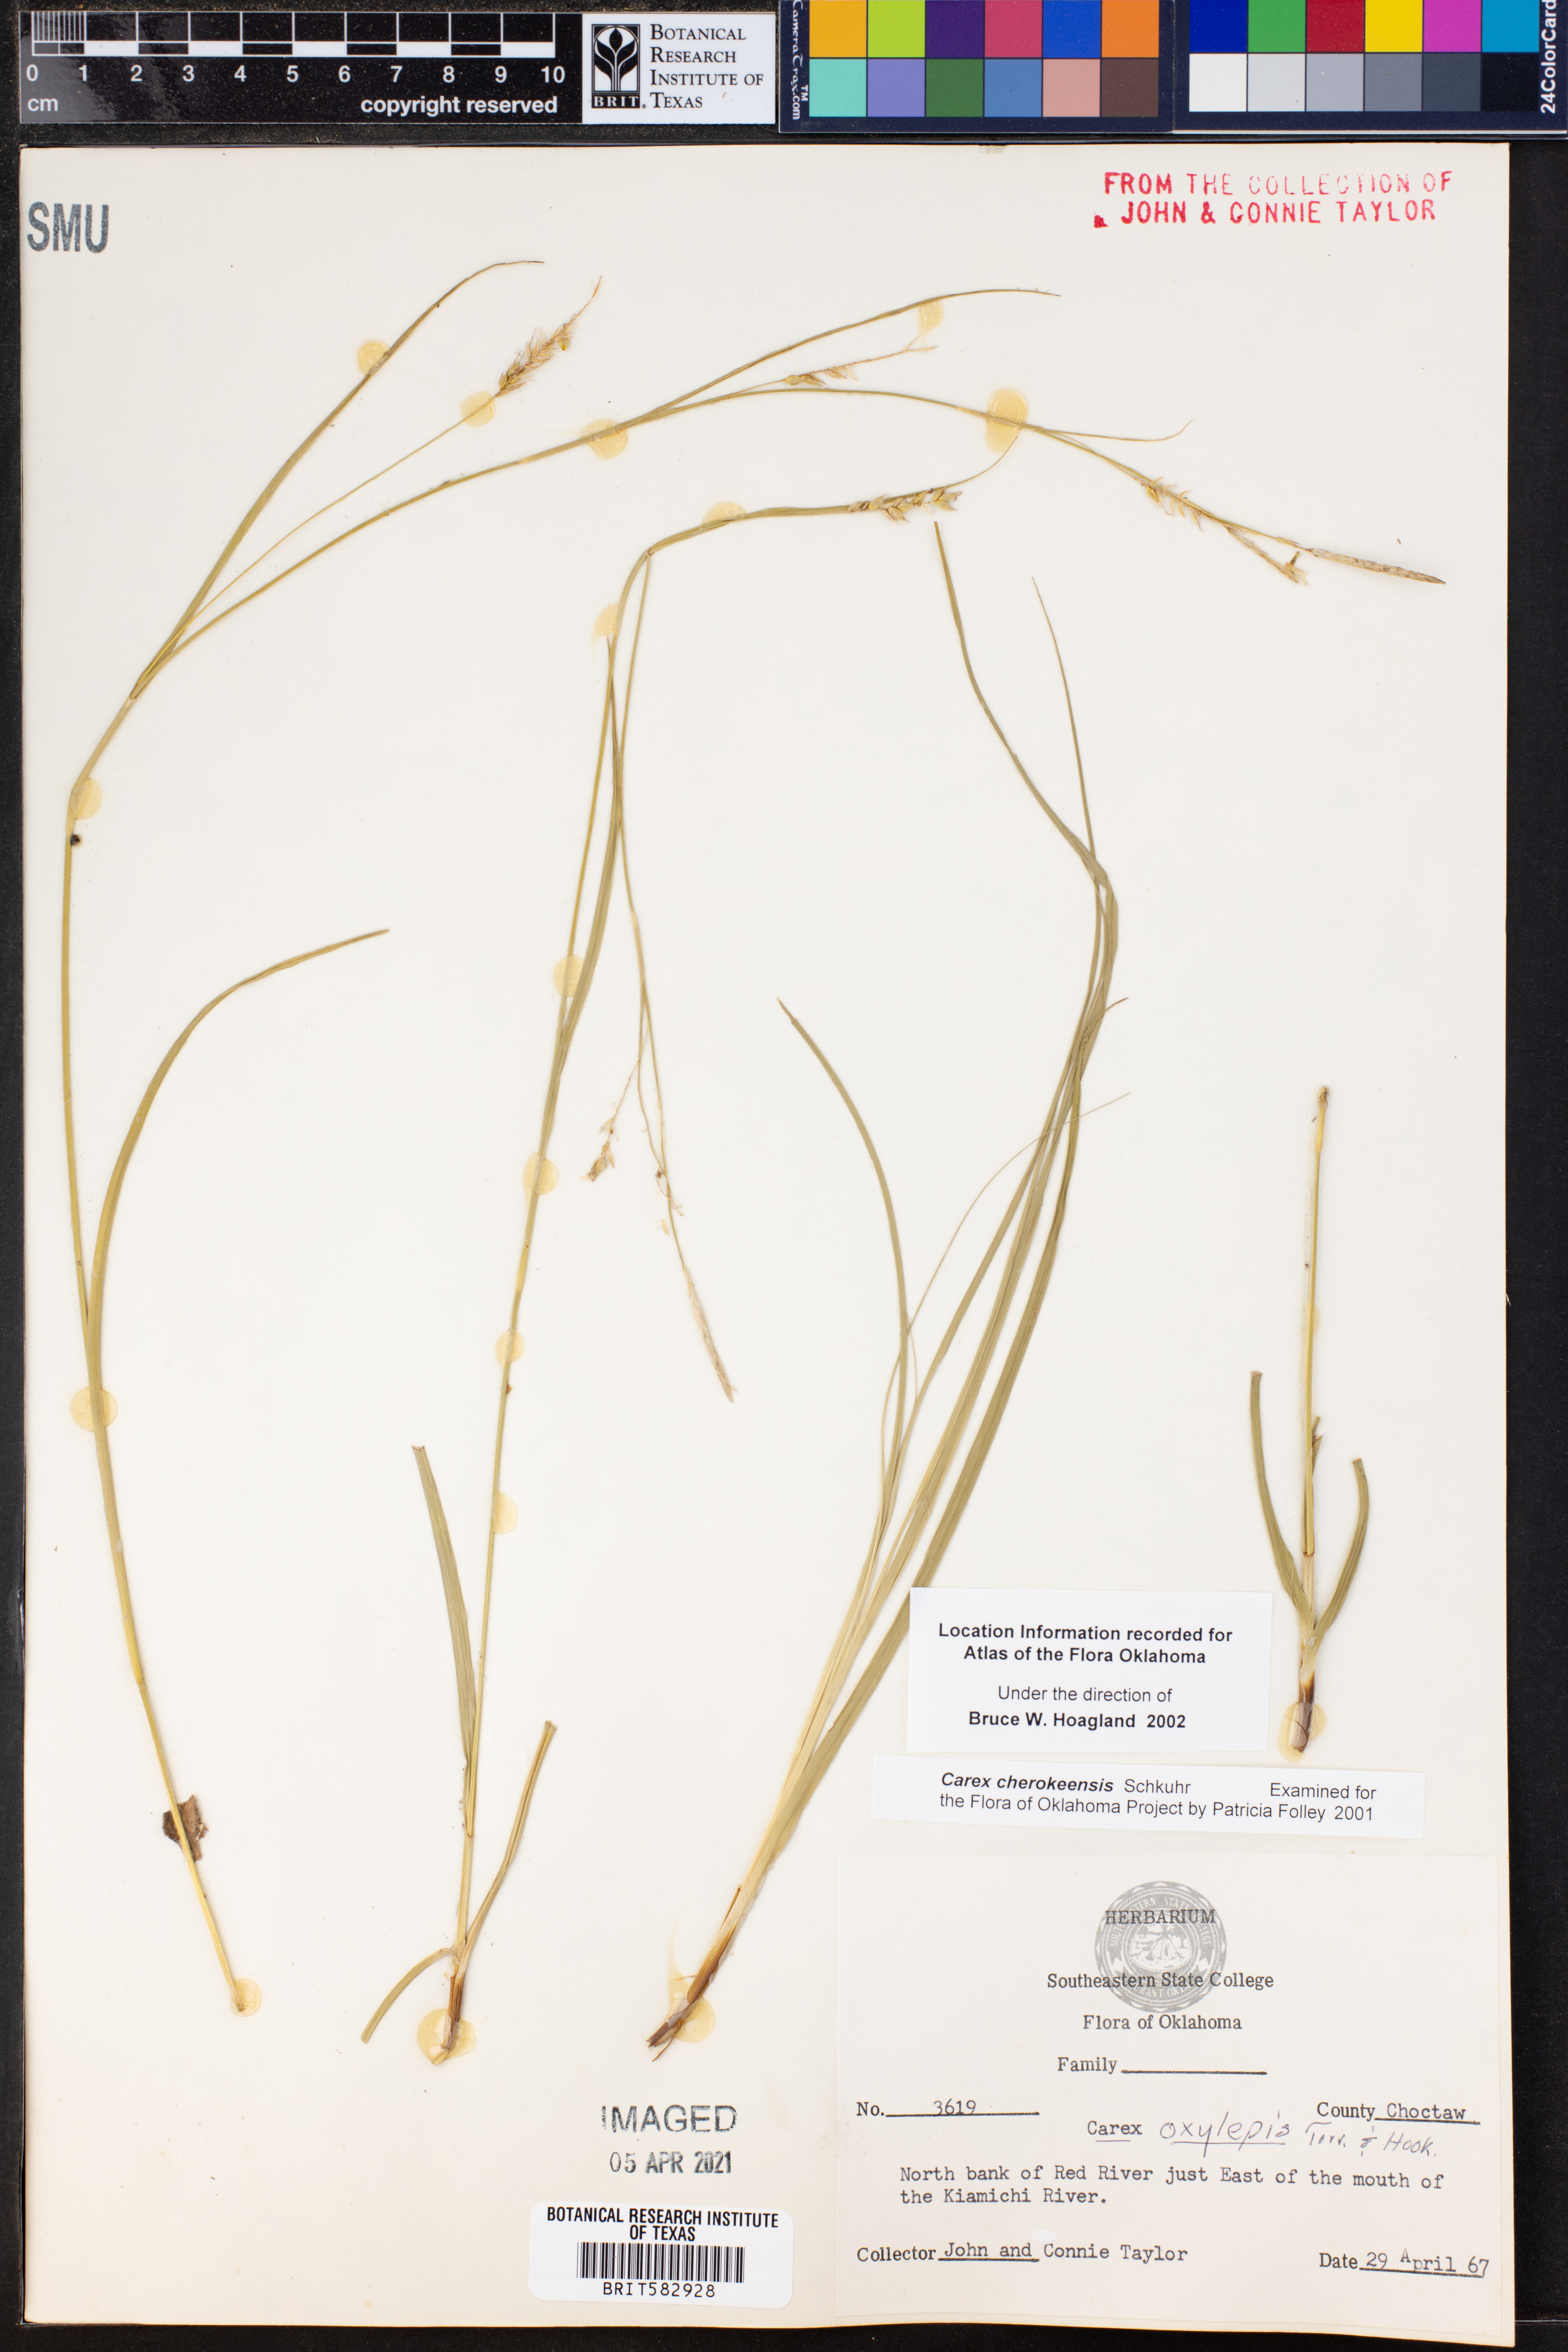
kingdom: Plantae
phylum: Tracheophyta
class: Liliopsida
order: Poales
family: Cyperaceae
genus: Carex
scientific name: Carex cherokeensis
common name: Cherokee sedge
